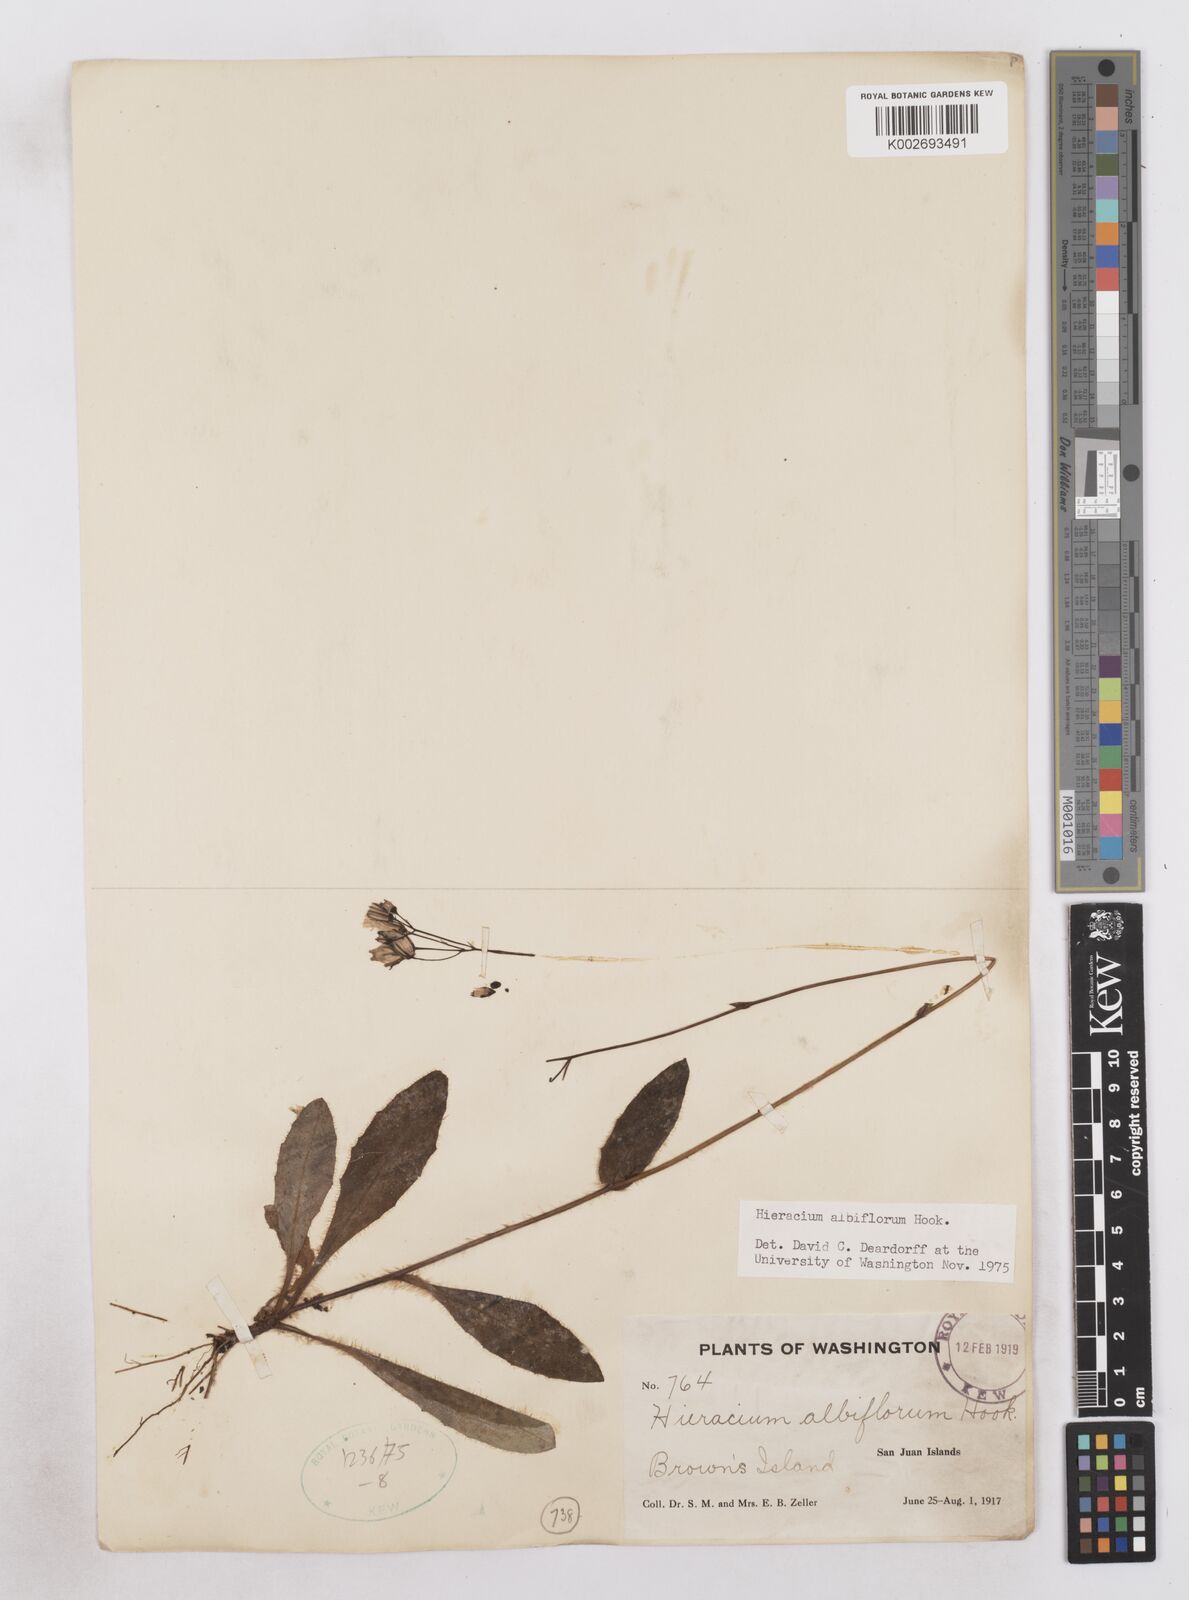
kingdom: Plantae
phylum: Tracheophyta
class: Magnoliopsida
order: Asterales
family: Asteraceae
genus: Hieracium
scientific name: Hieracium albiflorum
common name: White hawkweed
